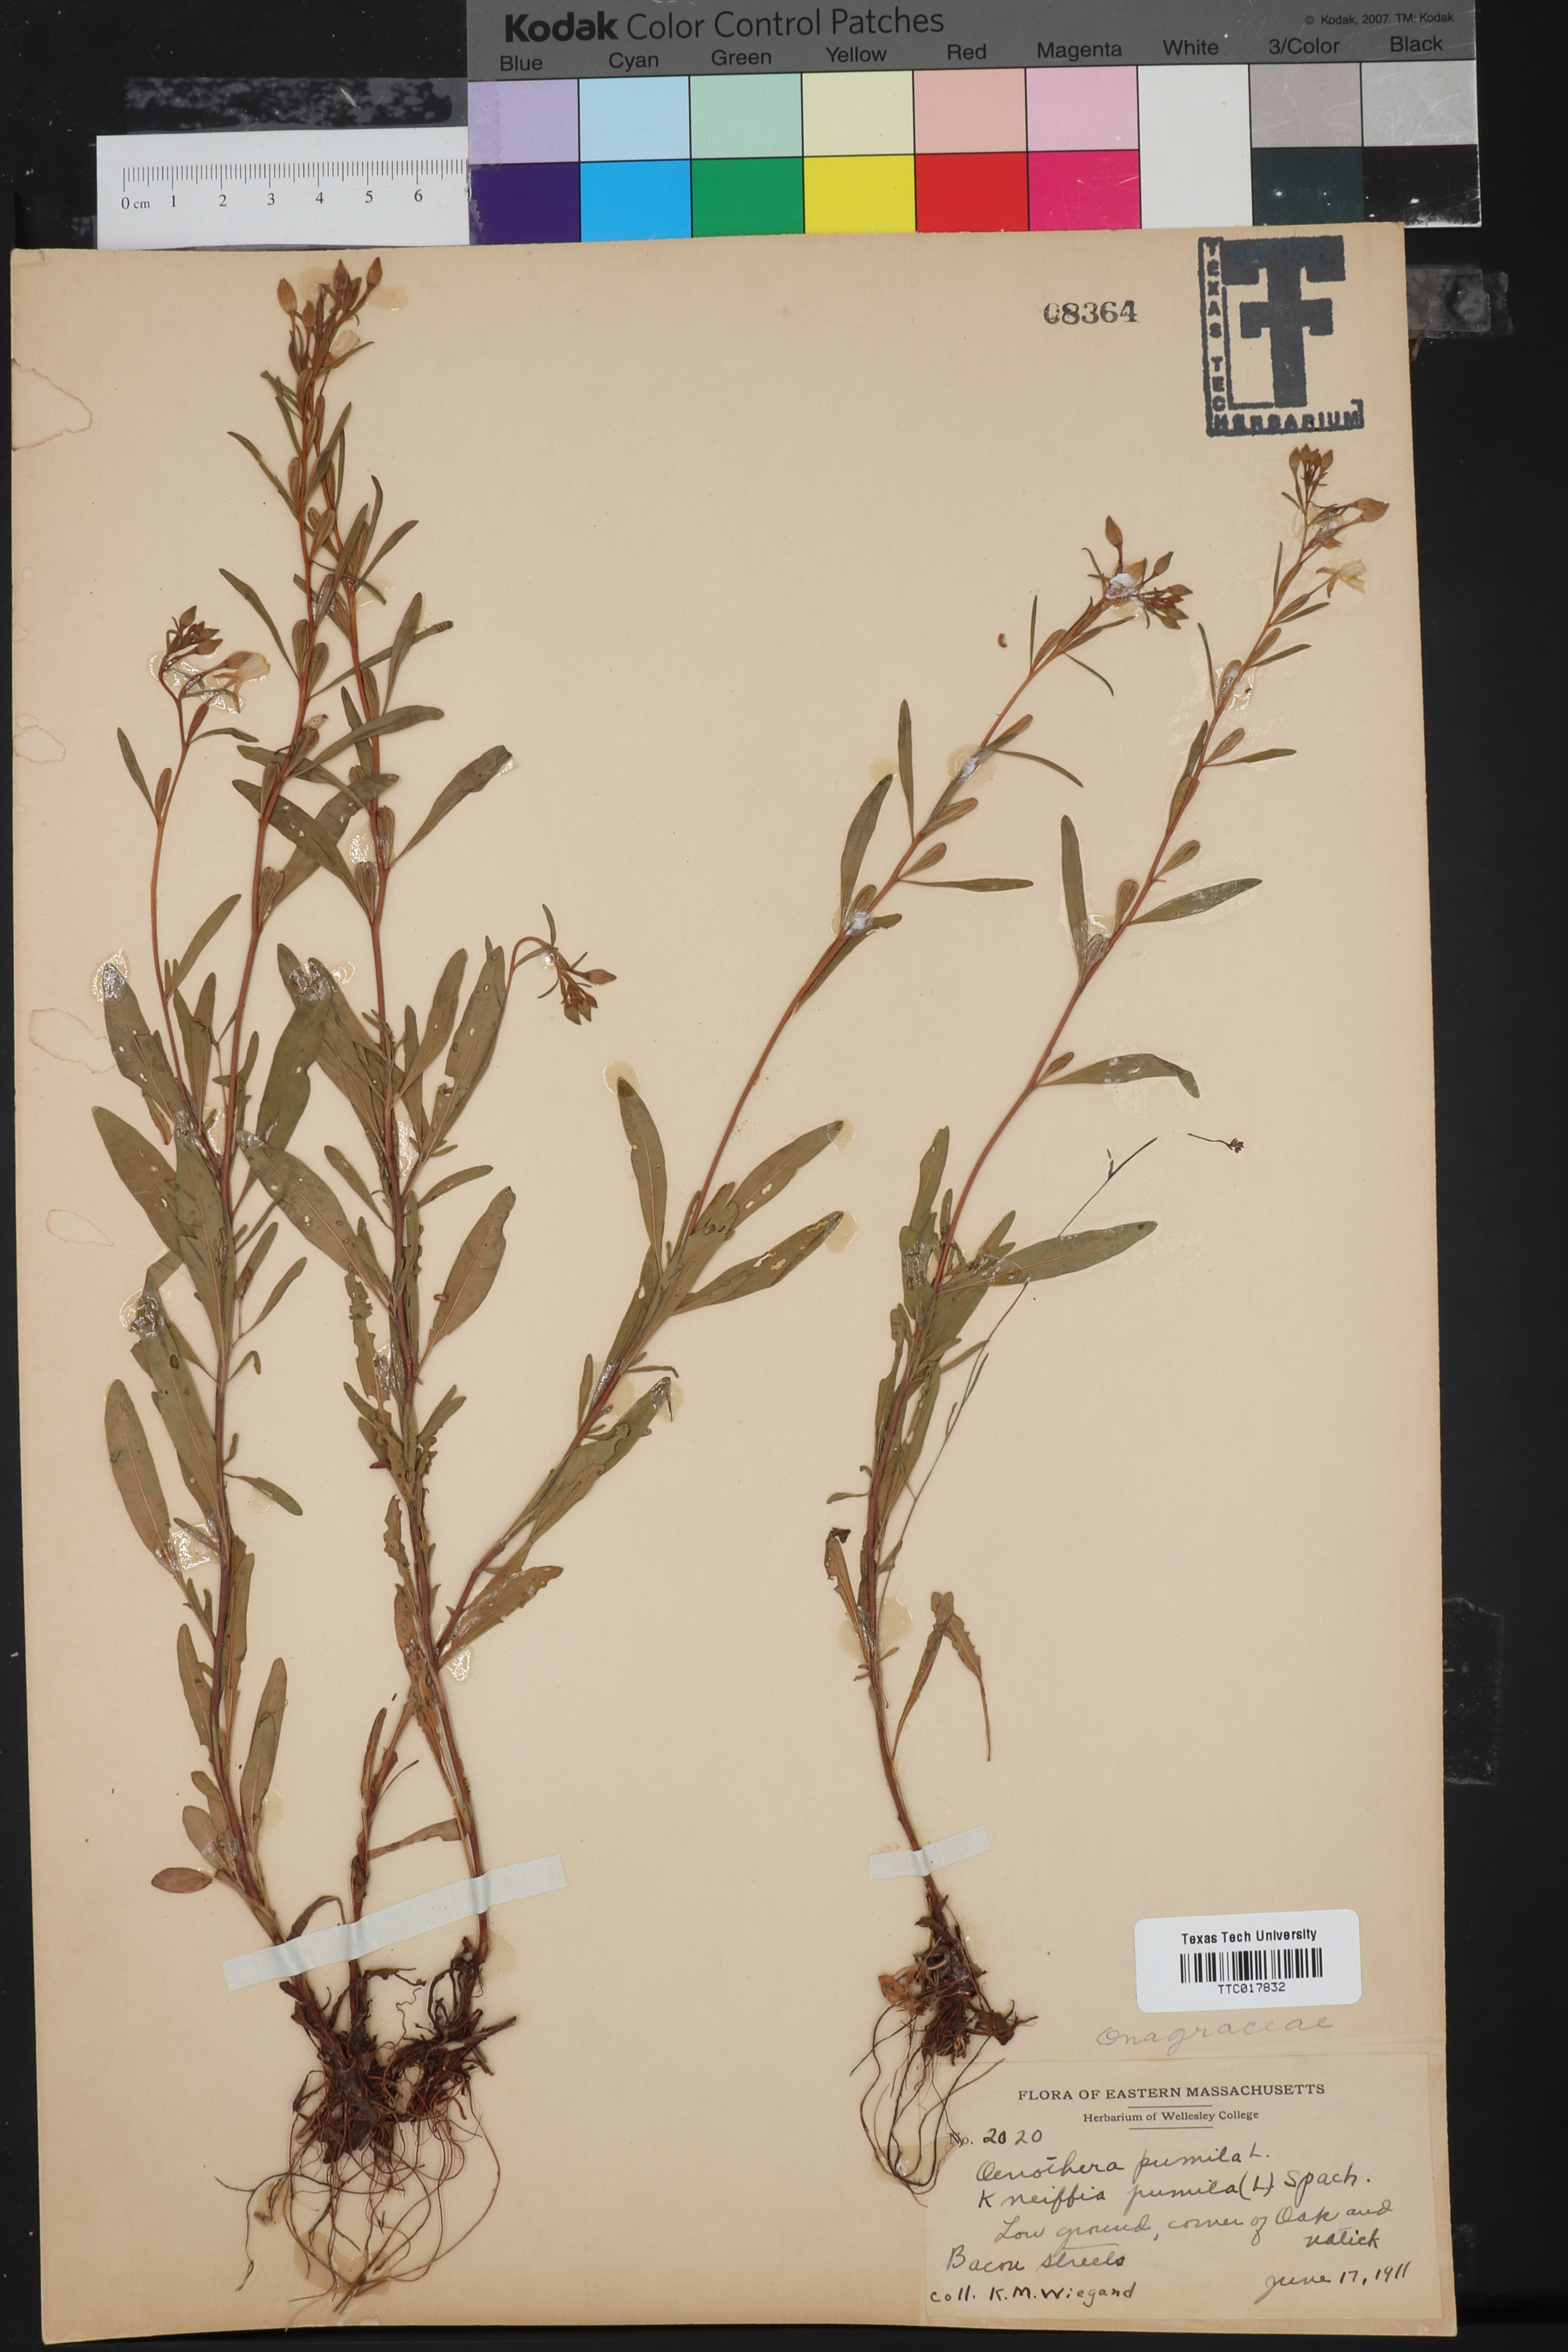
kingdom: Plantae
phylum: Tracheophyta
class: Magnoliopsida
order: Myrtales
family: Onagraceae
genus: Oenothera
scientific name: Oenothera perennis
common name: Small sundrops
